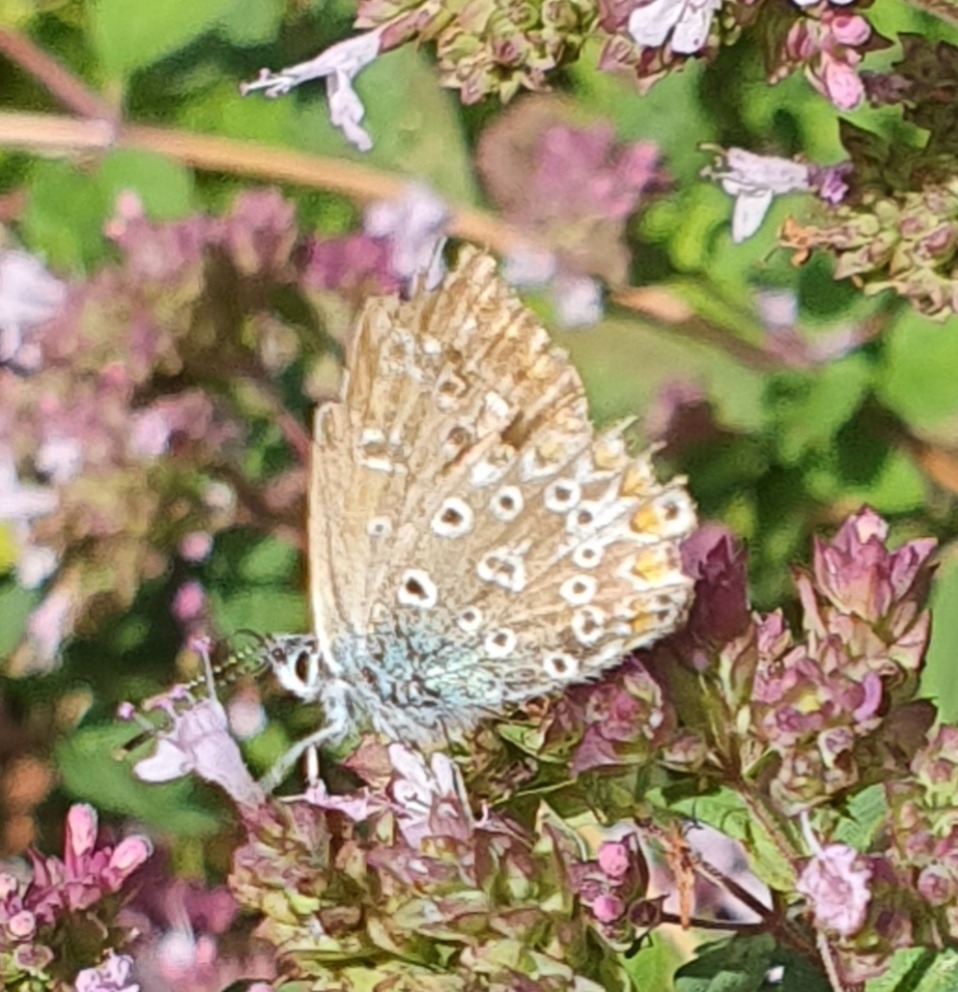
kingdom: Animalia
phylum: Arthropoda
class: Insecta
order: Lepidoptera
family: Lycaenidae
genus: Polyommatus
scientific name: Polyommatus icarus
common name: Almindelig blåfugl
